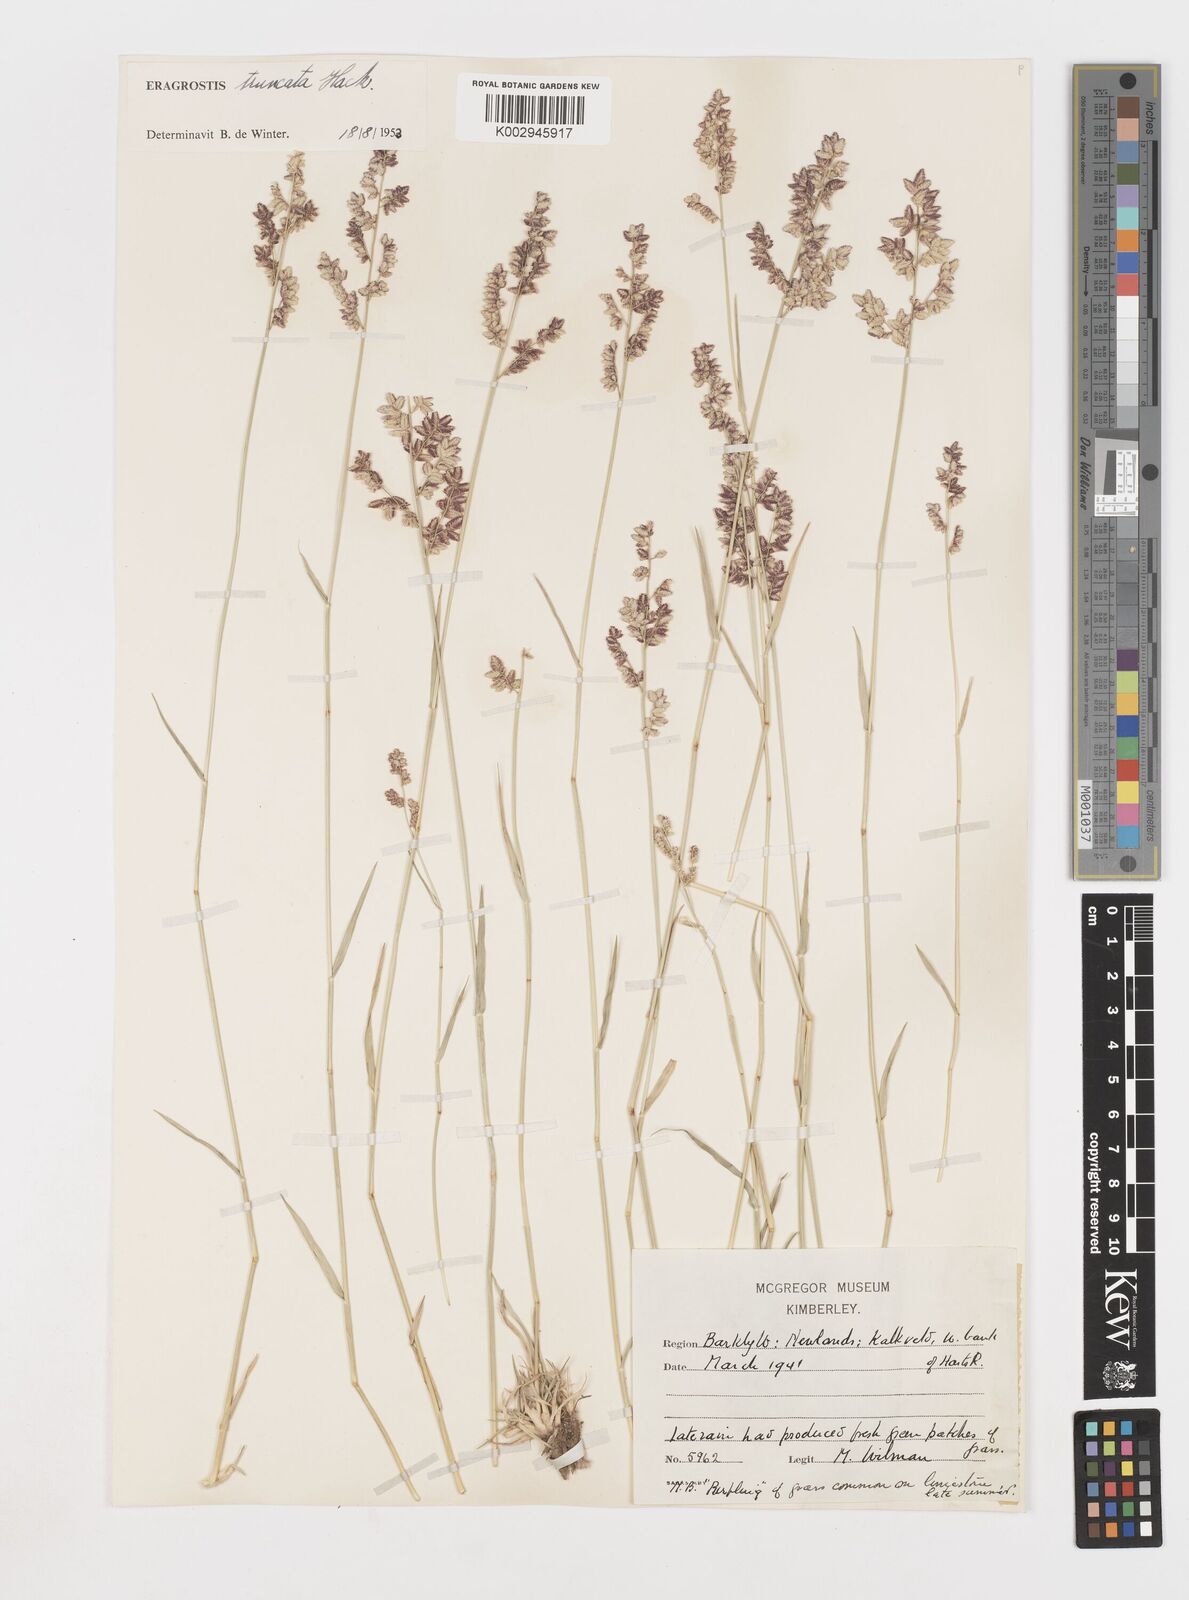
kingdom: Plantae
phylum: Tracheophyta
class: Liliopsida
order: Poales
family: Poaceae
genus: Eragrostis
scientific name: Eragrostis truncata
